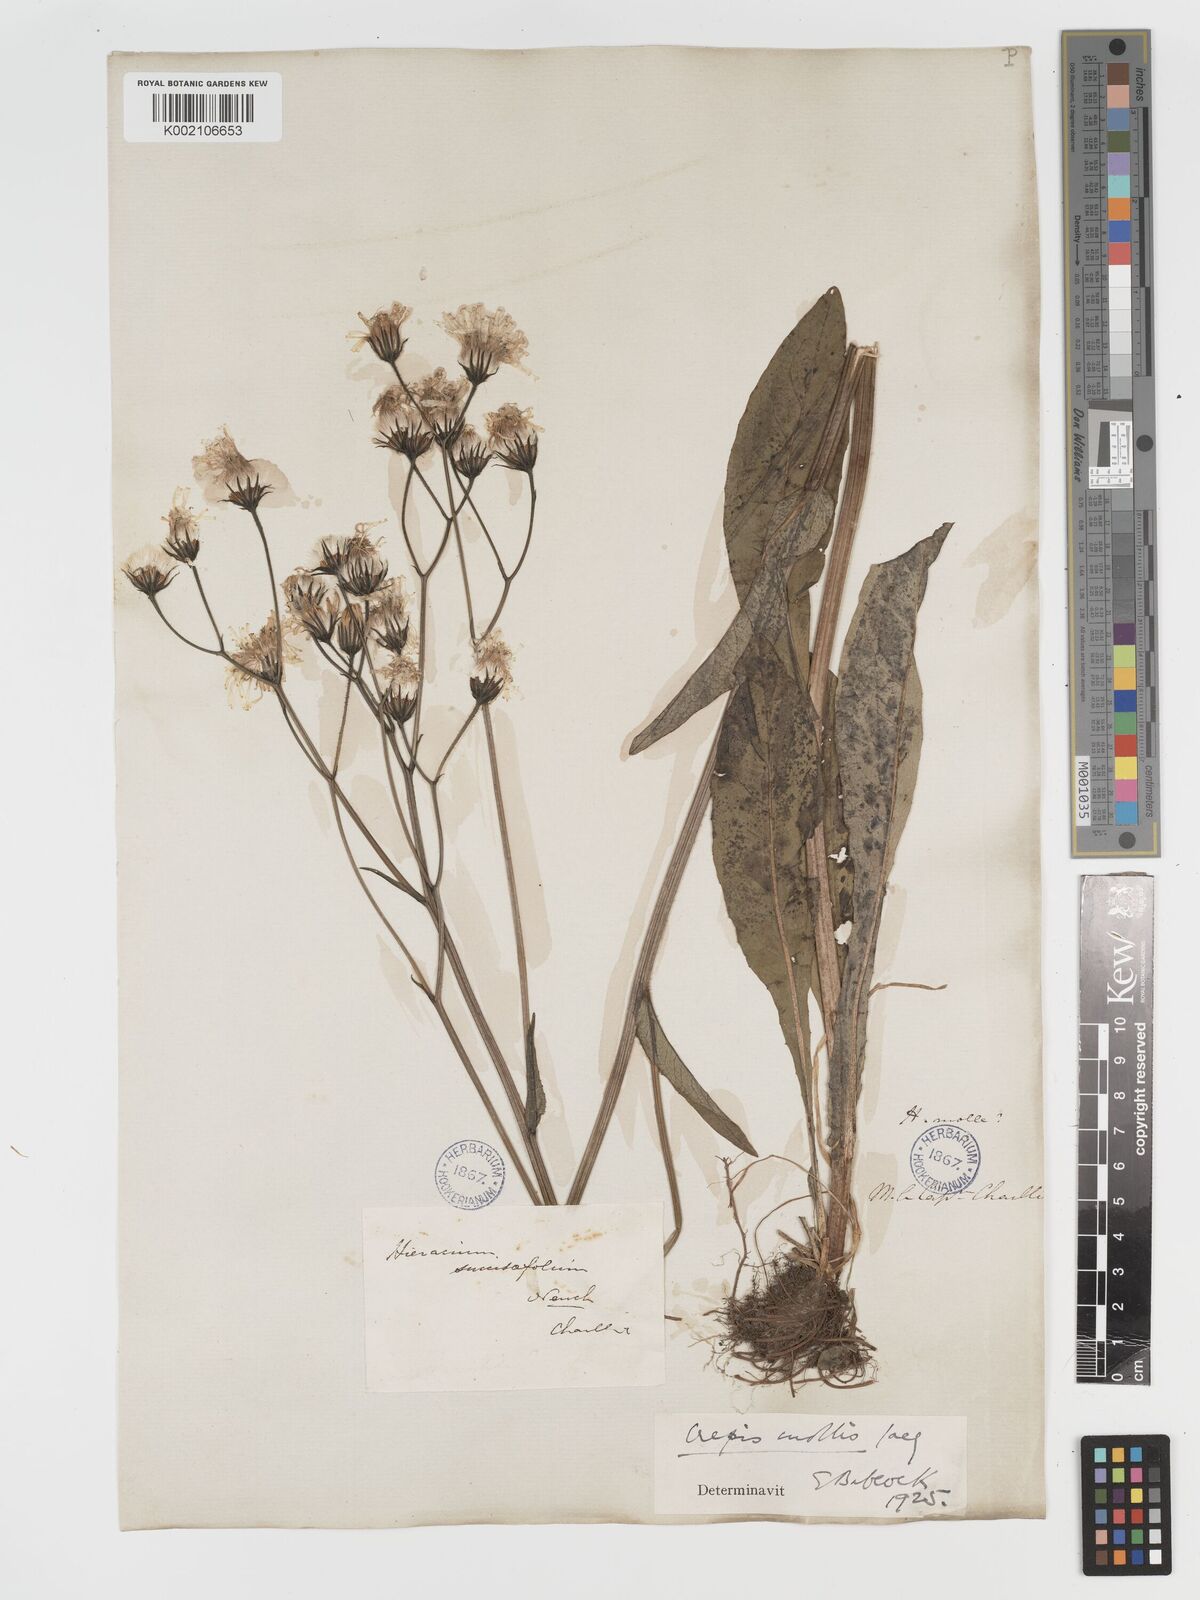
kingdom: Plantae
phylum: Tracheophyta
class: Magnoliopsida
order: Asterales
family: Asteraceae
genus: Crepis
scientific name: Crepis mollis
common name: Northern hawk's-beard
